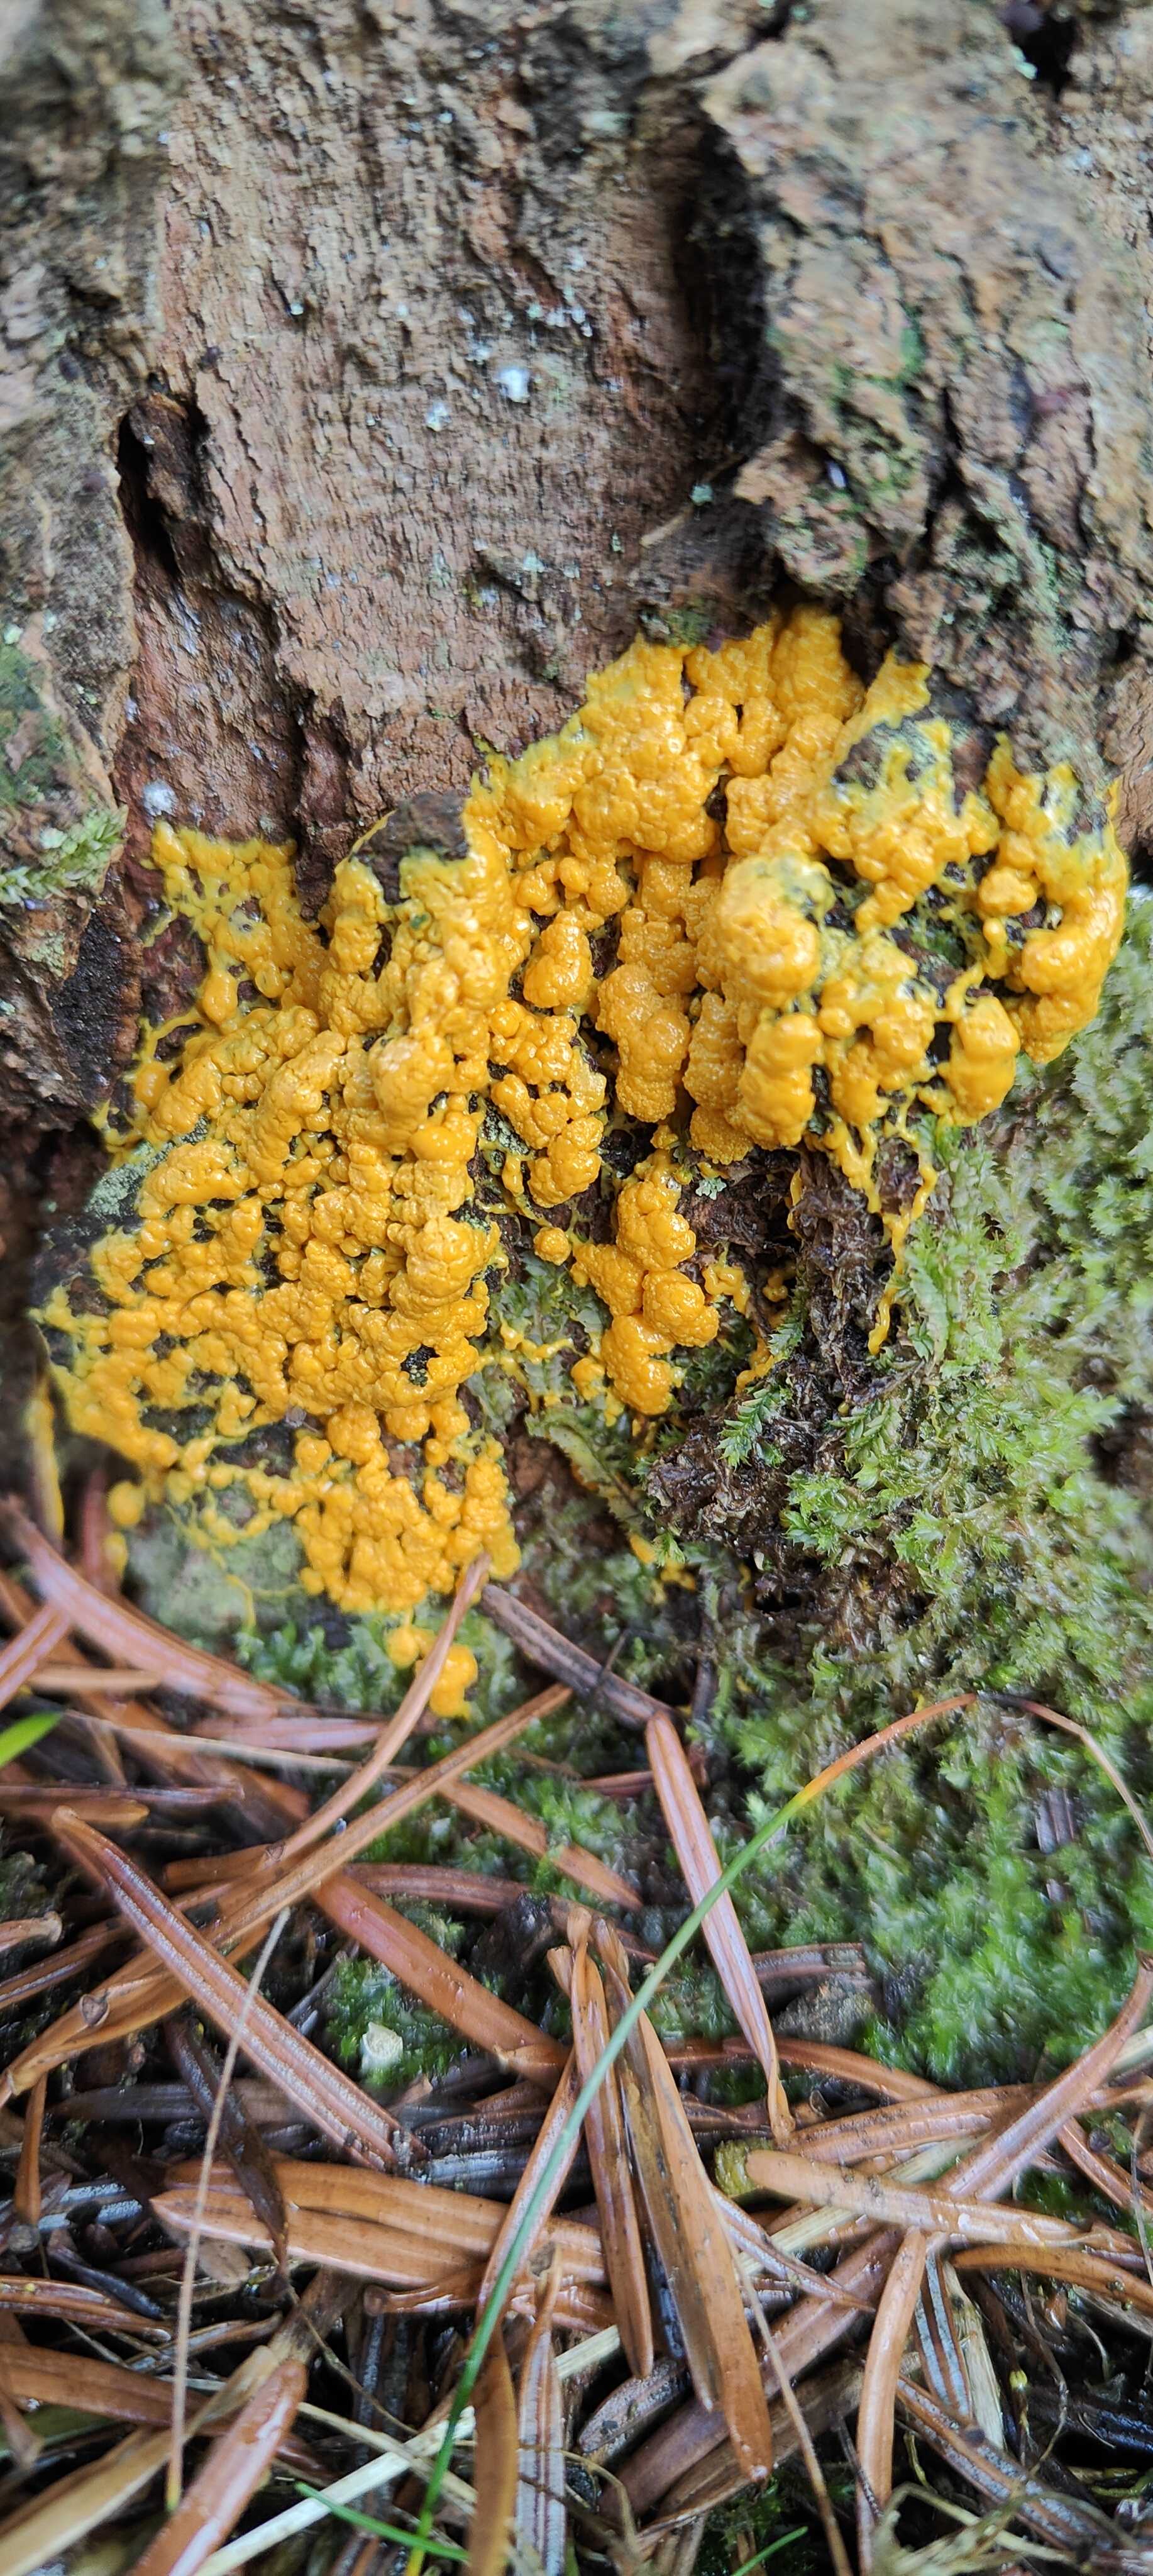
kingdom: Protozoa
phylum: Mycetozoa
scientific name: Mycetozoa
